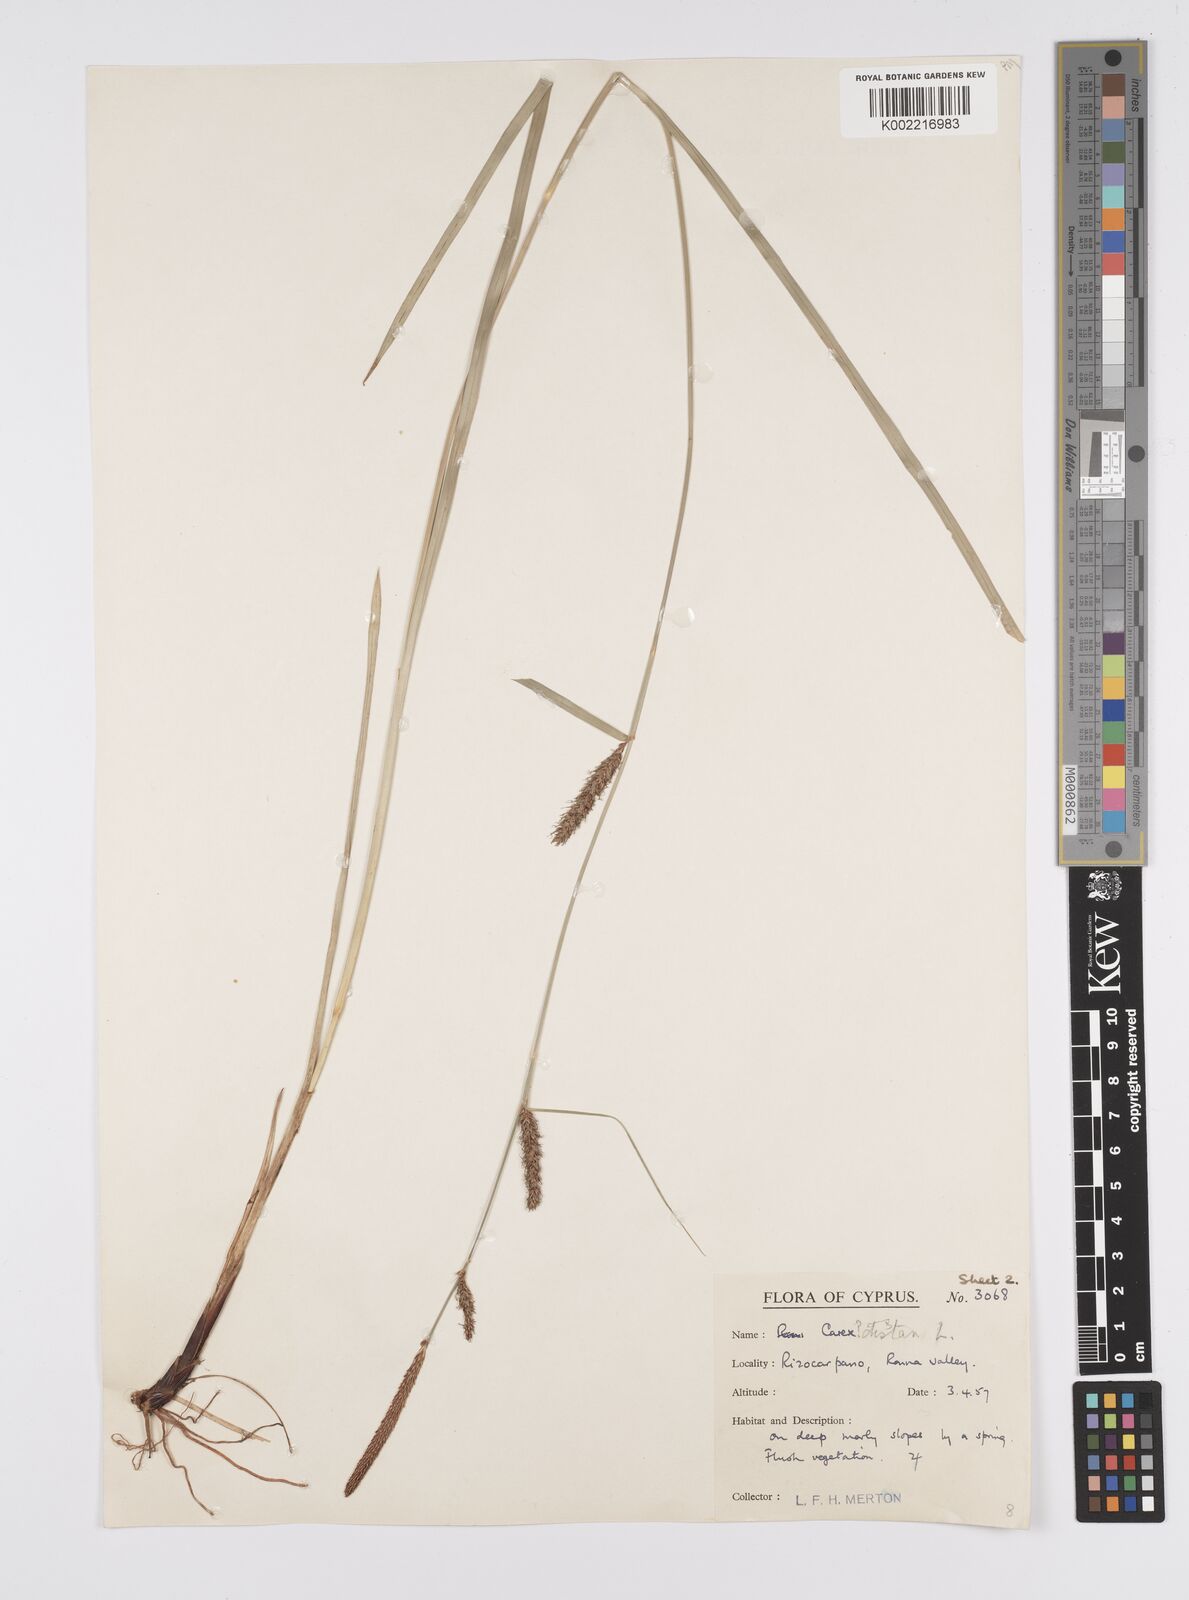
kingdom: Plantae
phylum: Tracheophyta
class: Liliopsida
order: Poales
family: Cyperaceae
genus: Carex
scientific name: Carex distans
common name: Distant sedge
